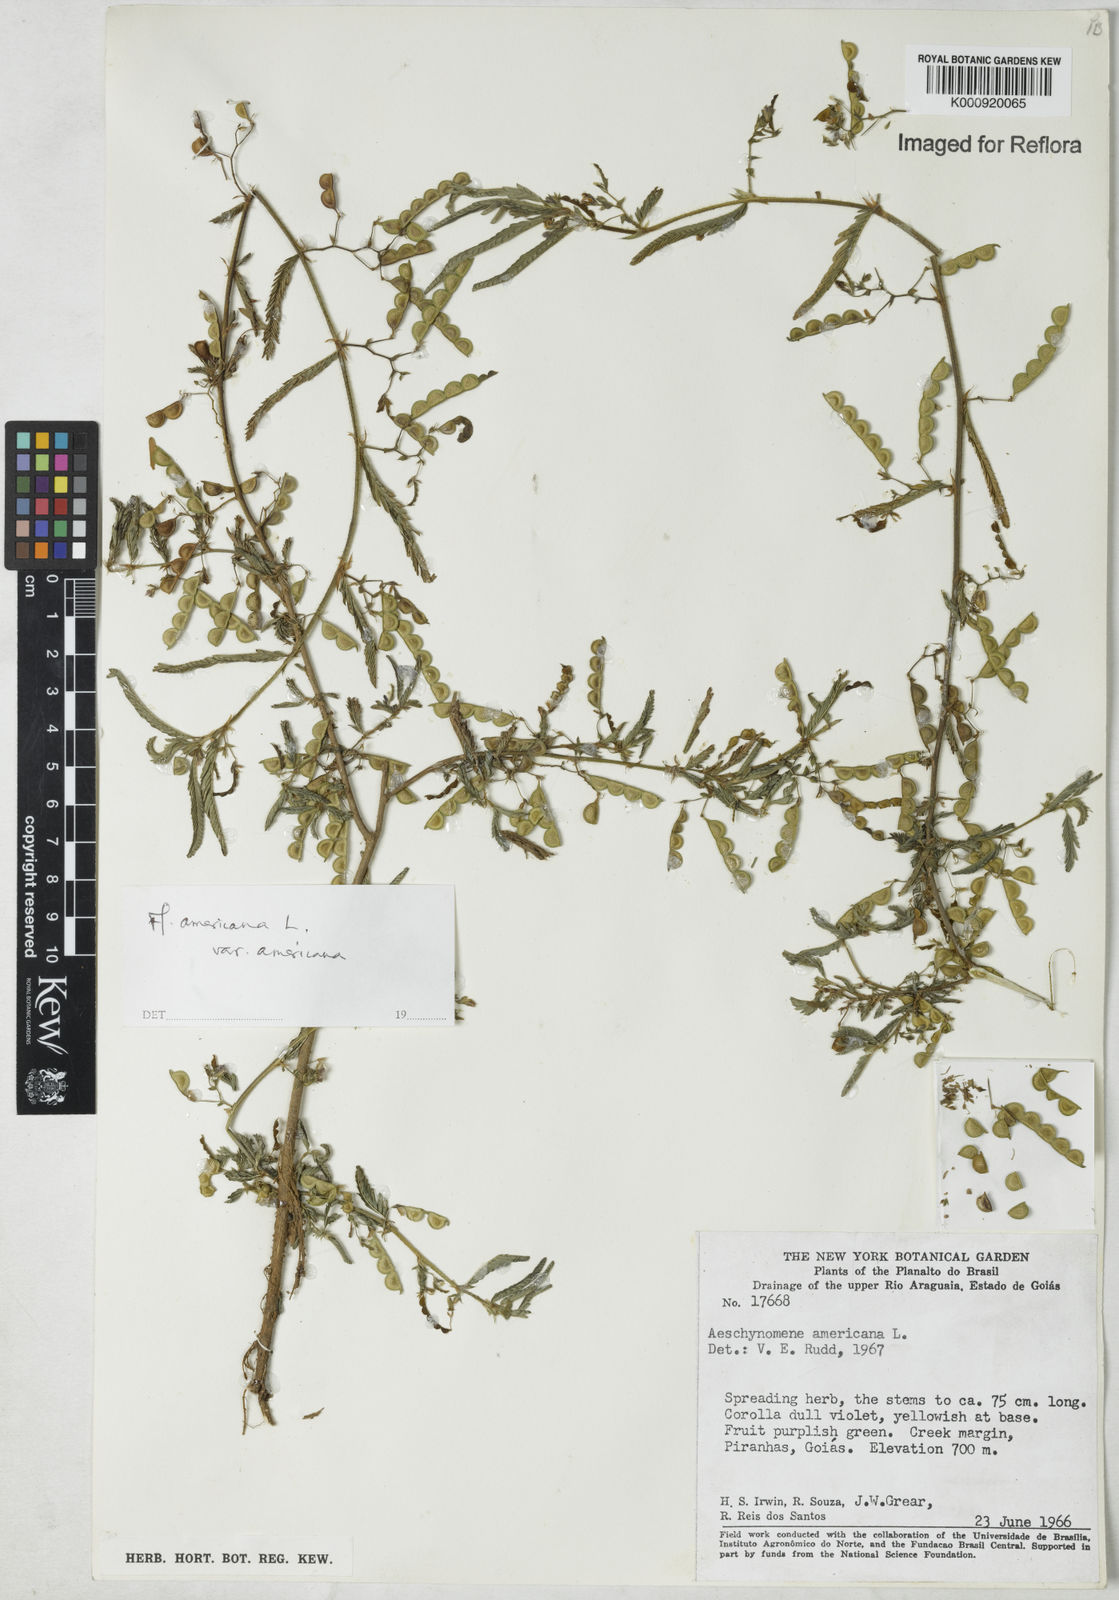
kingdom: Plantae
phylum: Tracheophyta
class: Magnoliopsida
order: Fabales
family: Fabaceae
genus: Aeschynomene
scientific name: Aeschynomene americana
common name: Joint-vetch
